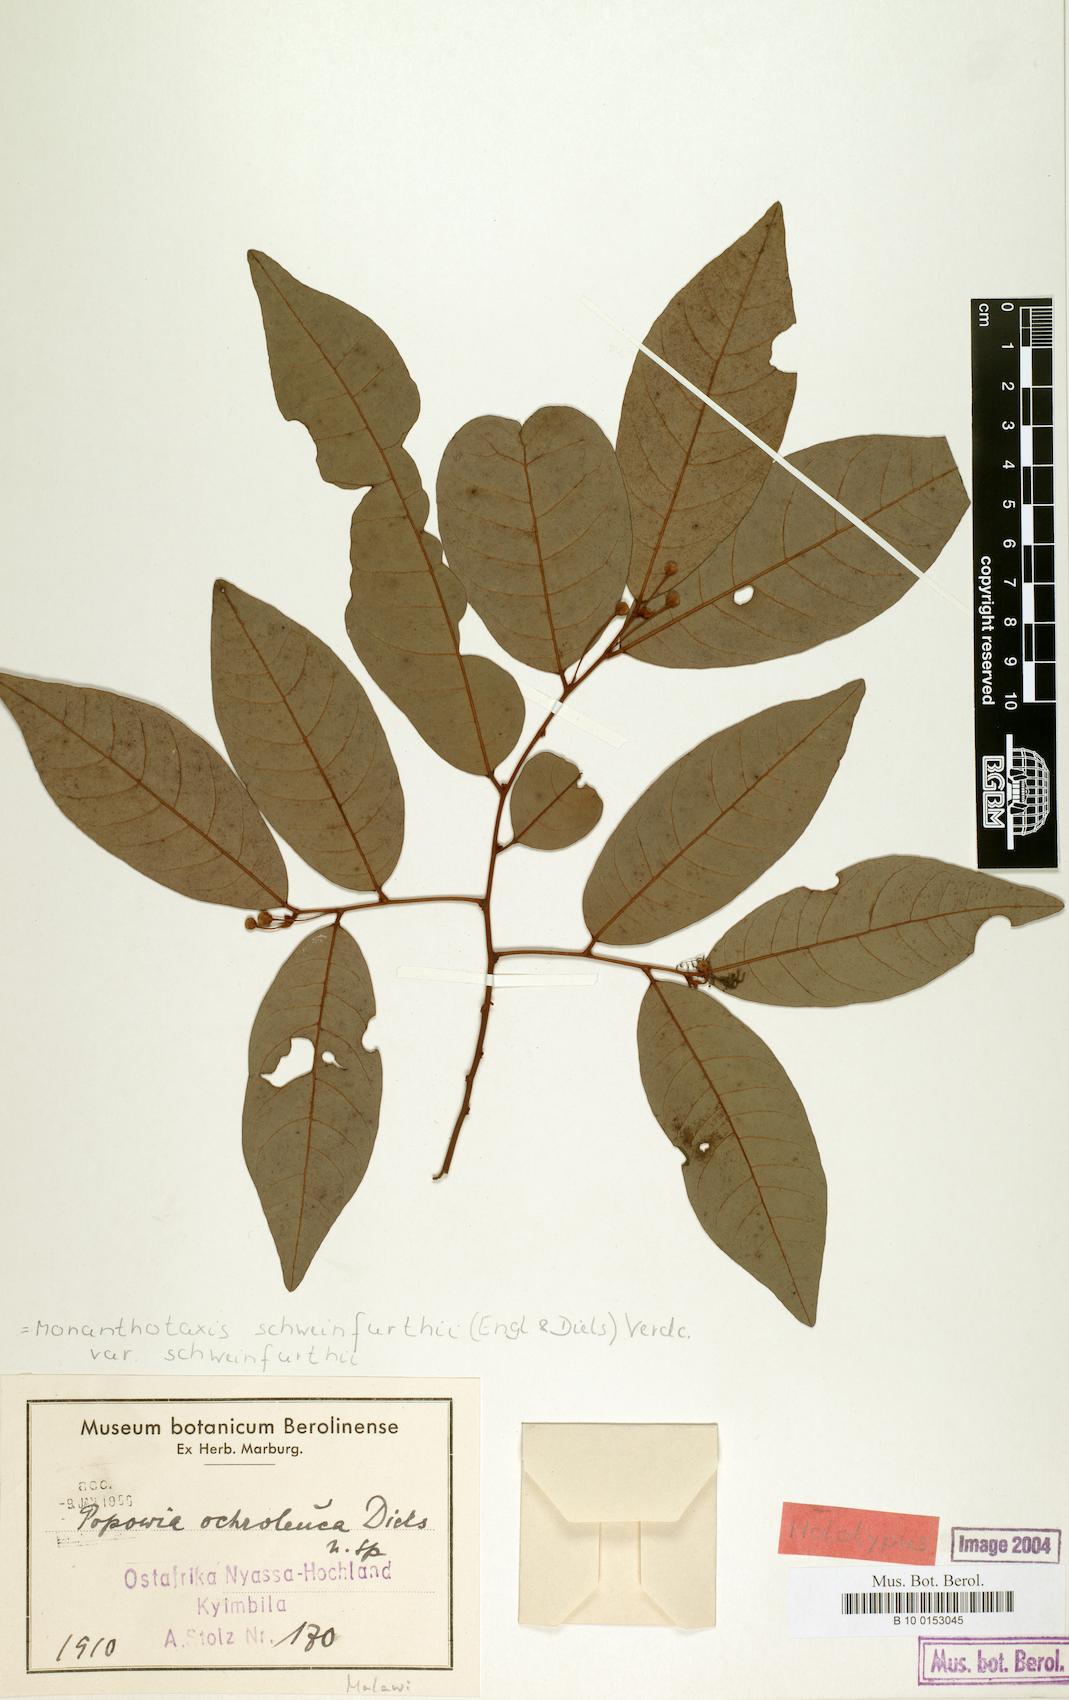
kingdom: Plantae
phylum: Tracheophyta
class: Magnoliopsida
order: Magnoliales
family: Annonaceae
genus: Monanthotaxis
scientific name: Monanthotaxis
